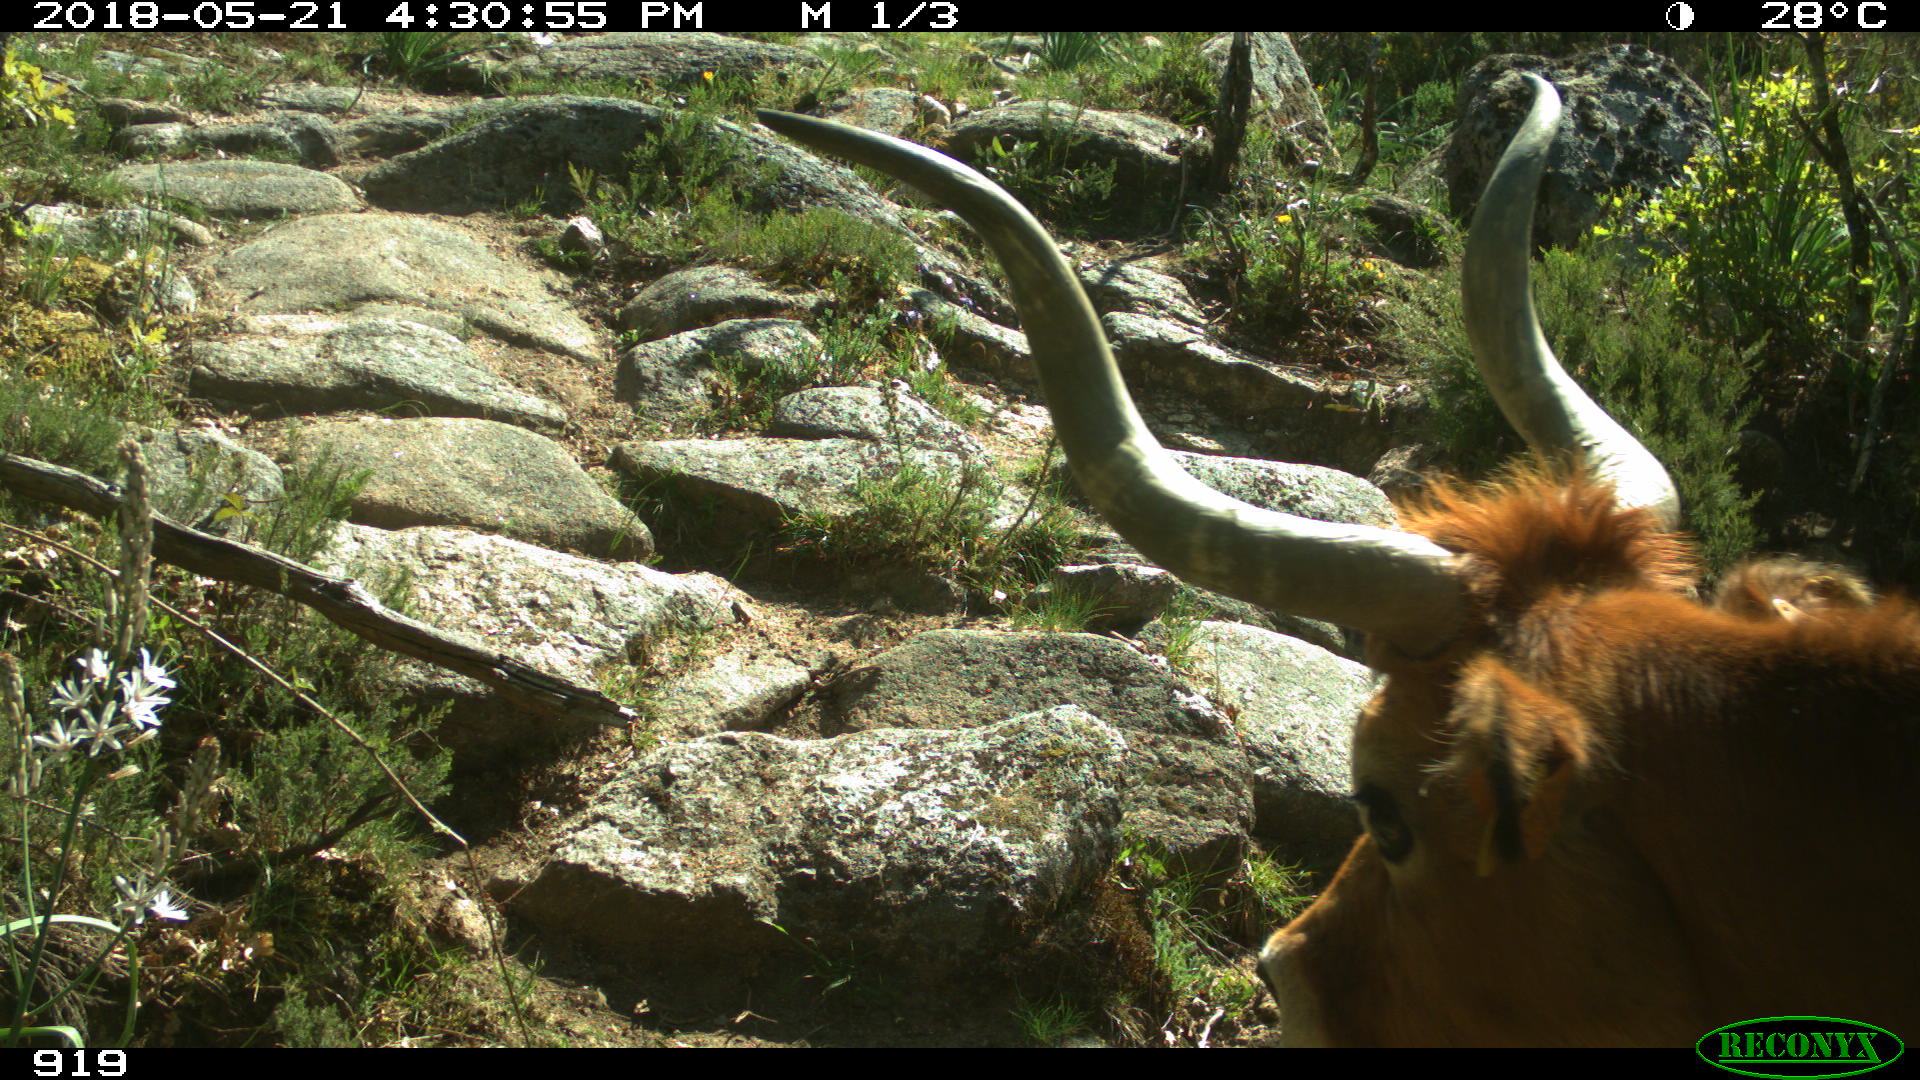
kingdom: Animalia
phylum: Chordata
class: Mammalia
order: Artiodactyla
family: Bovidae
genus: Bos
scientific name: Bos taurus
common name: Domesticated cattle
